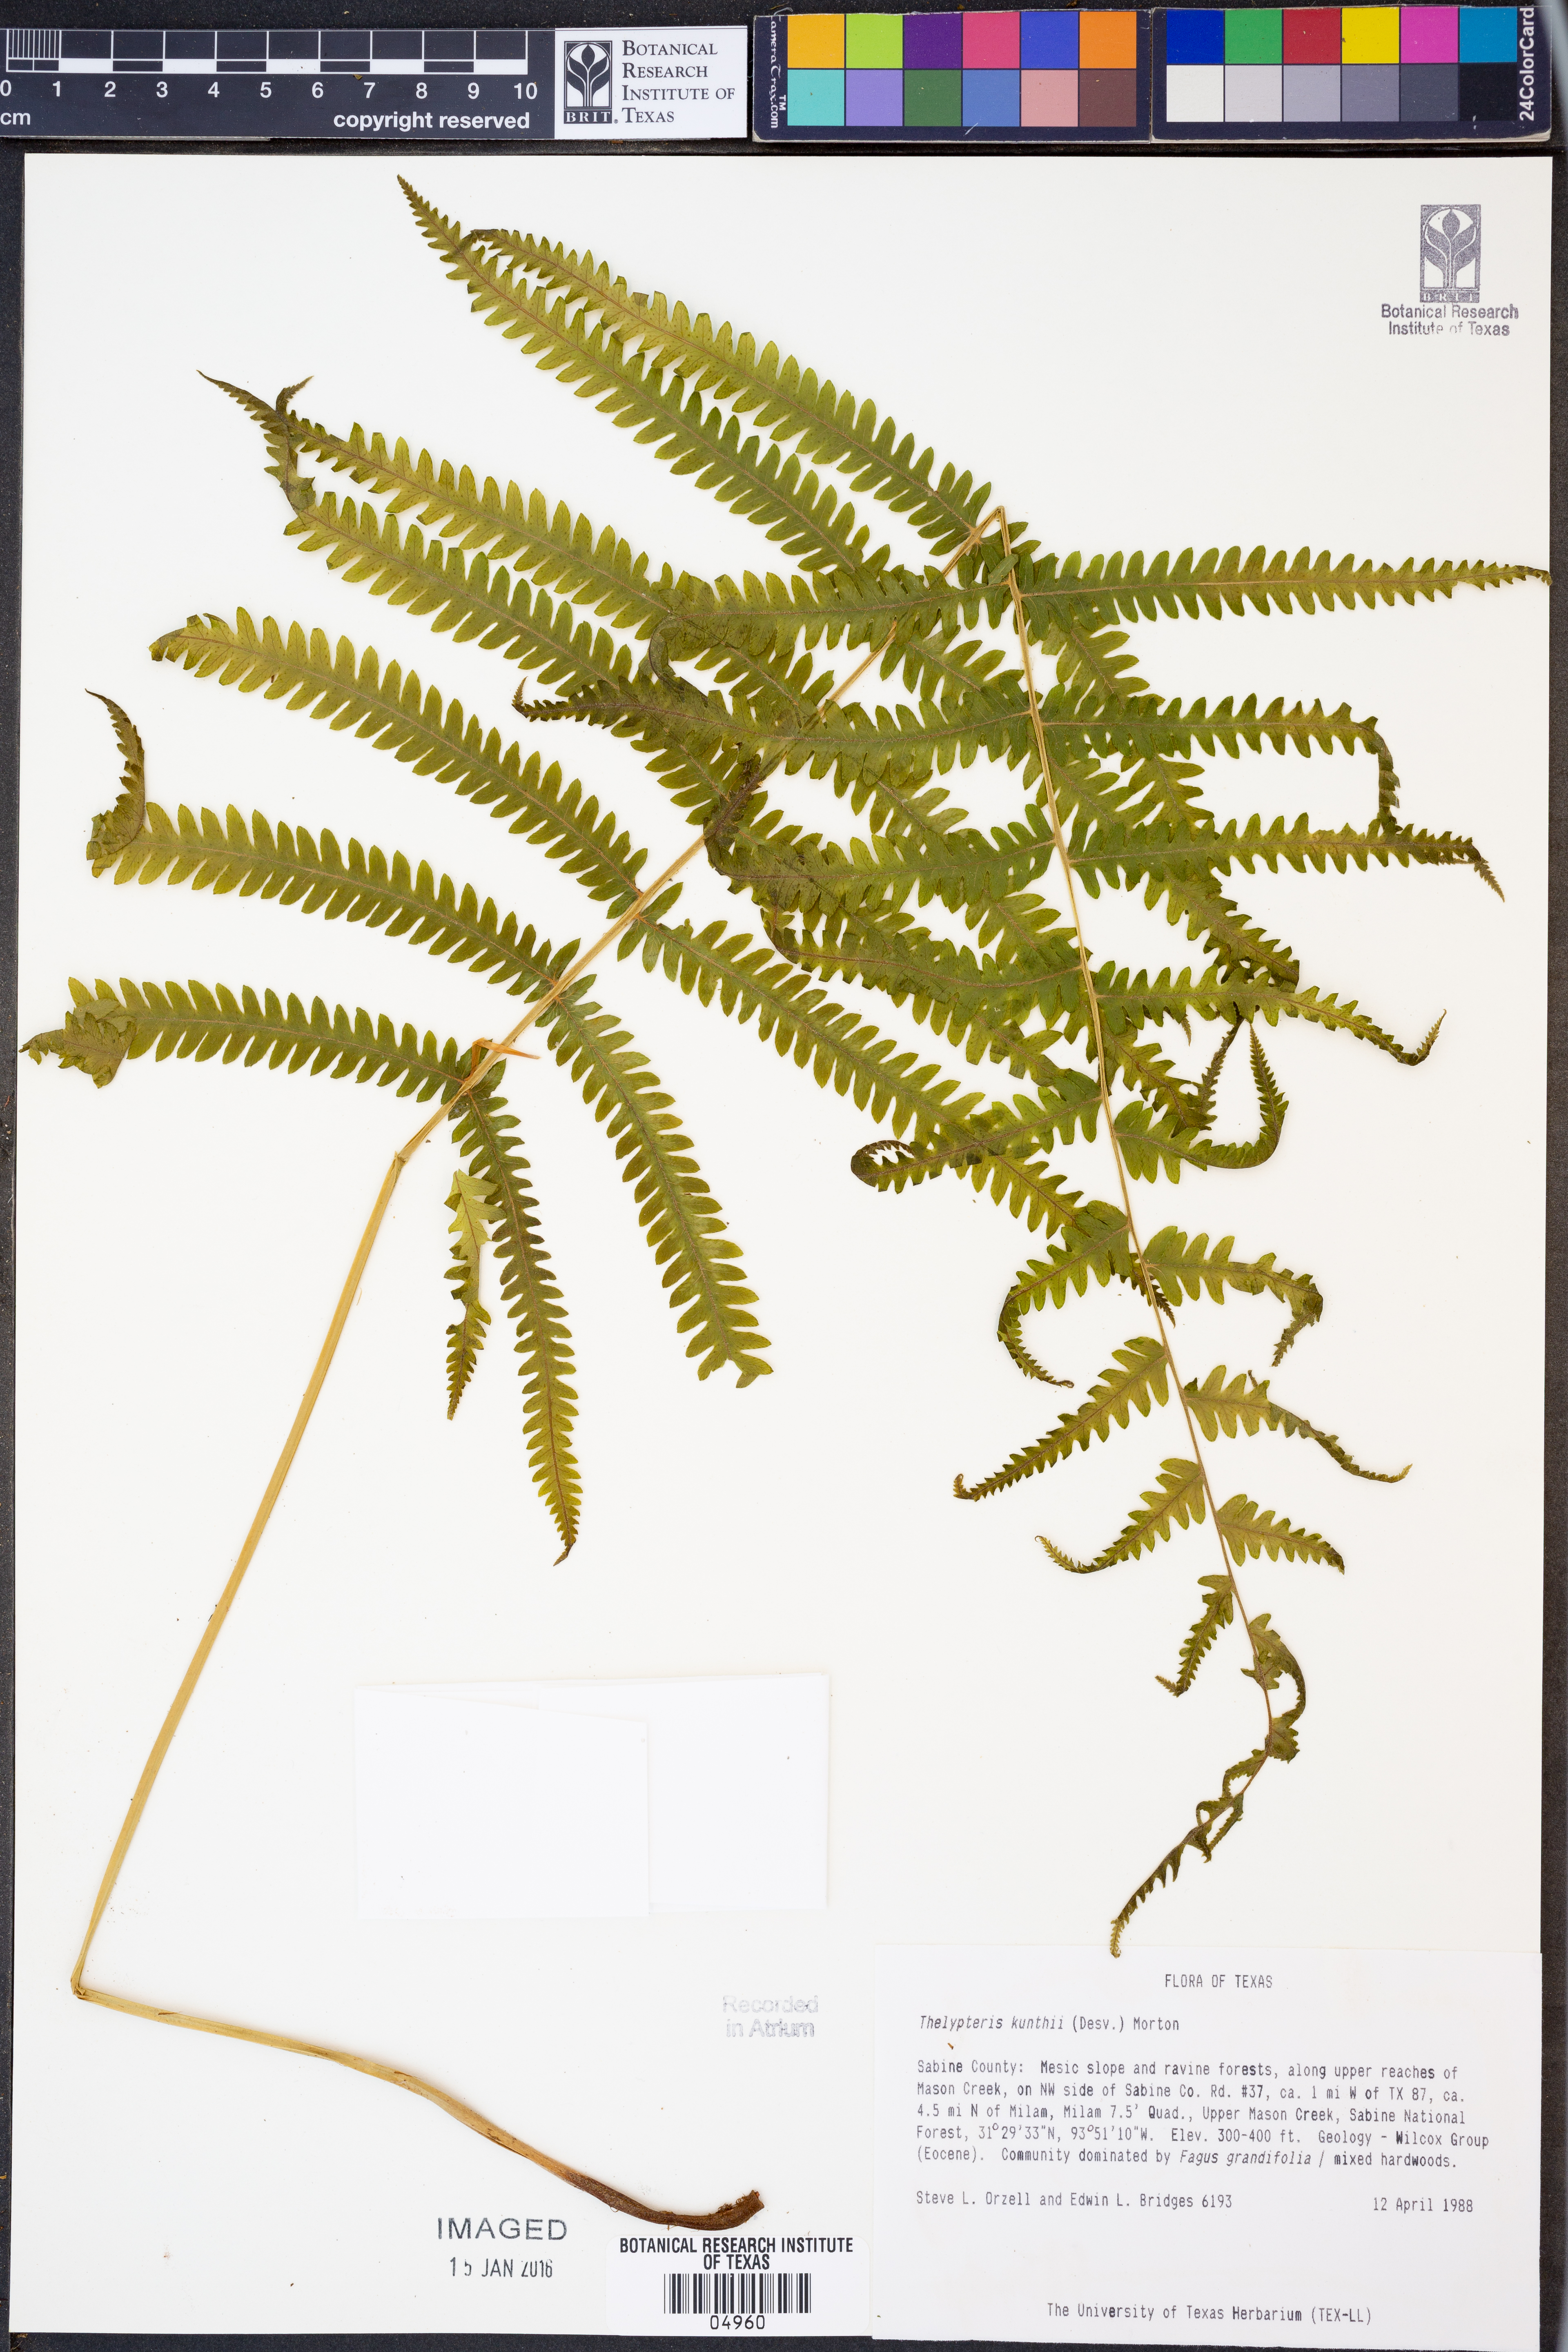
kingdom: Plantae
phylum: Tracheophyta
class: Polypodiopsida
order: Polypodiales
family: Thelypteridaceae
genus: Pelazoneuron
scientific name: Pelazoneuron kunthii
